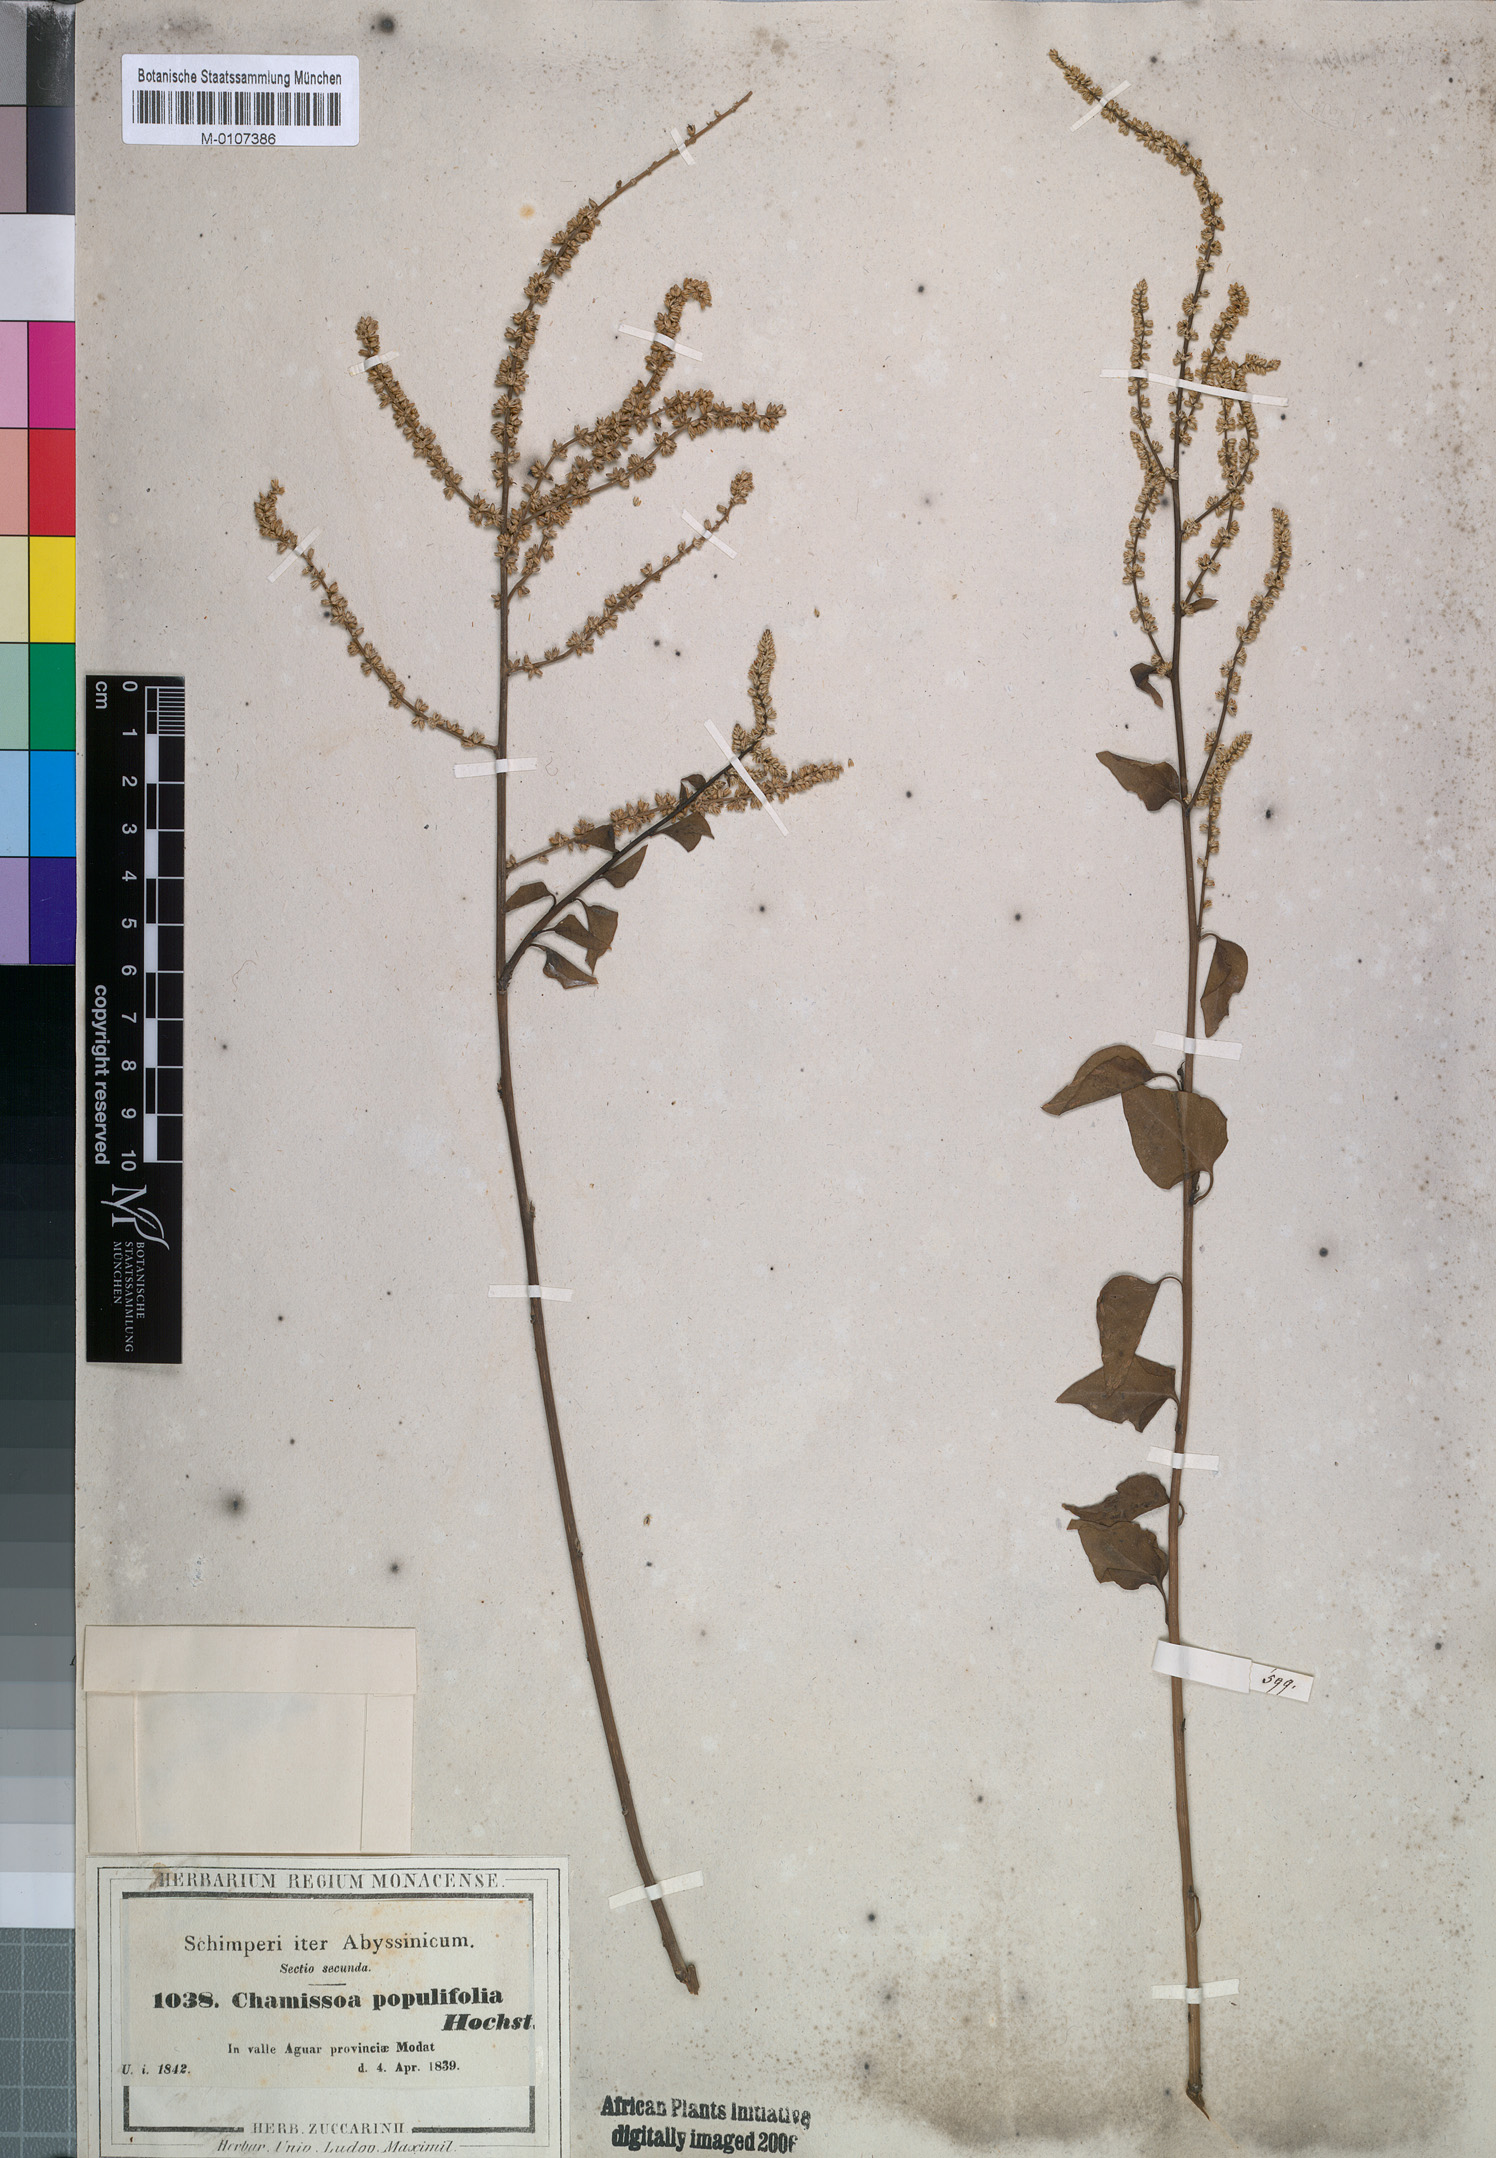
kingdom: Plantae
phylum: Tracheophyta
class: Magnoliopsida
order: Caryophyllales
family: Amaranthaceae
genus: Celosia
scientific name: Celosia polystachya
